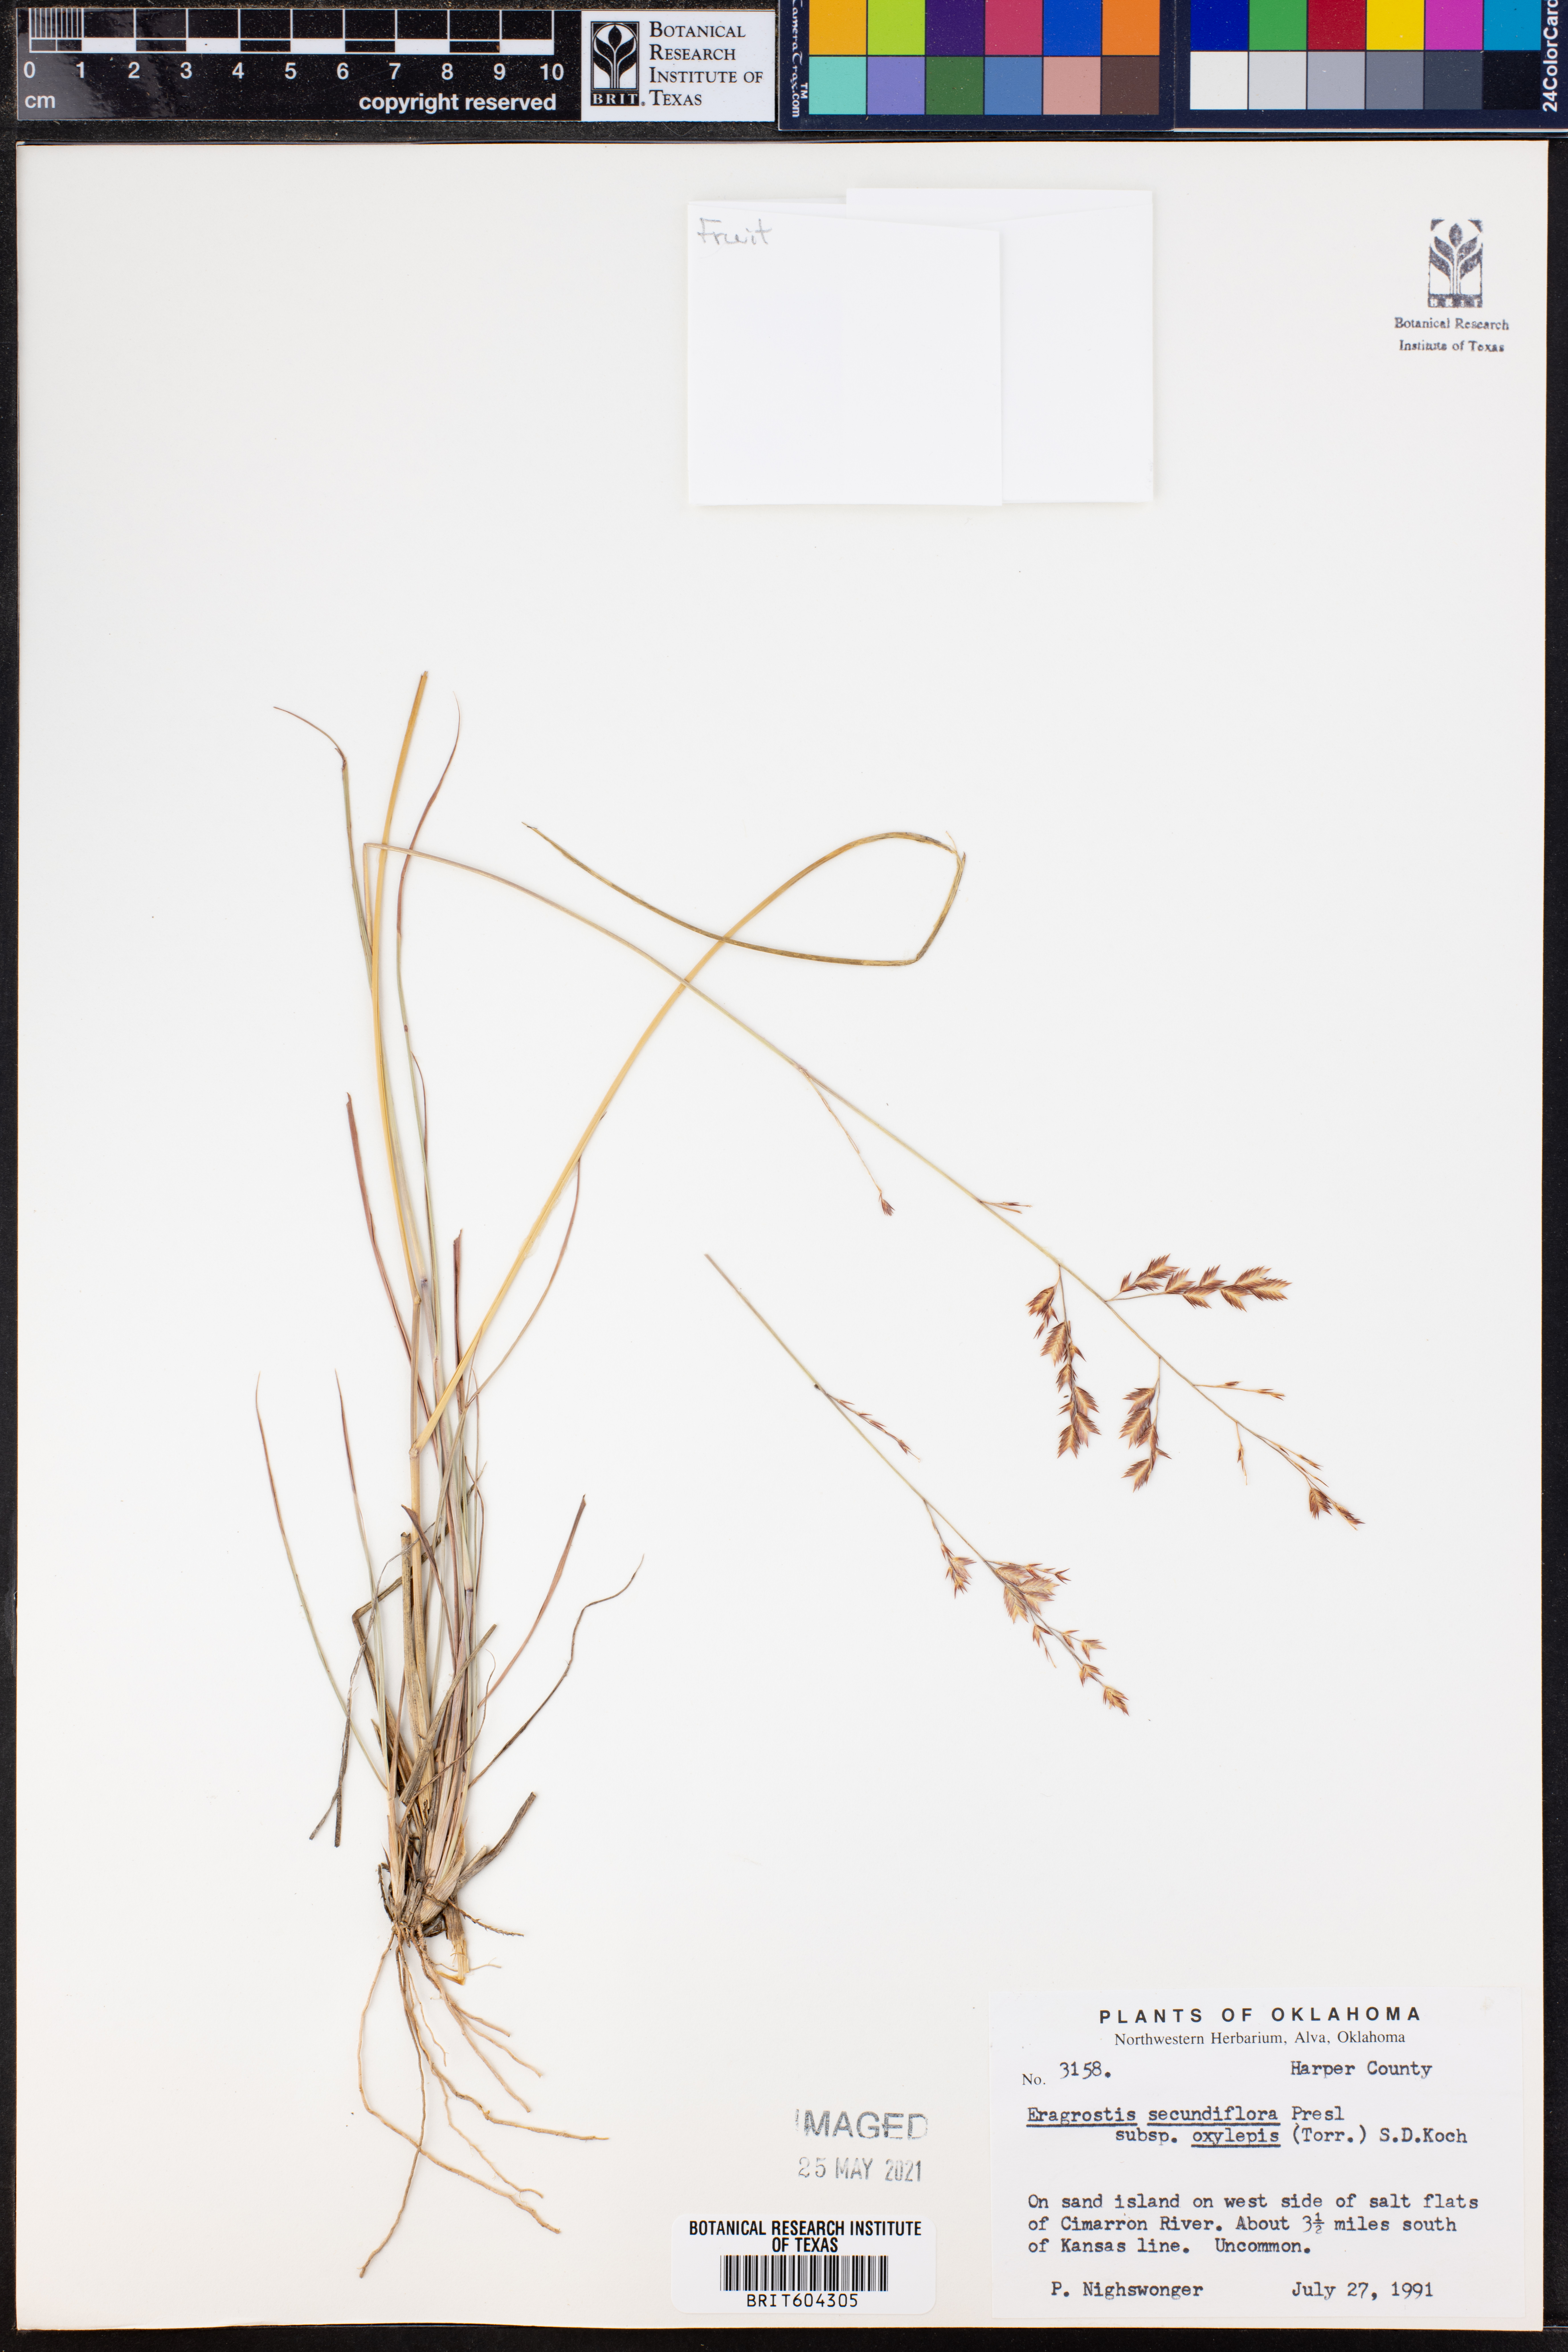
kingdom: Plantae
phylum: Tracheophyta
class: Liliopsida
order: Poales
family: Poaceae
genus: Eragrostis
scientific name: Eragrostis secundiflora
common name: Red love grass
